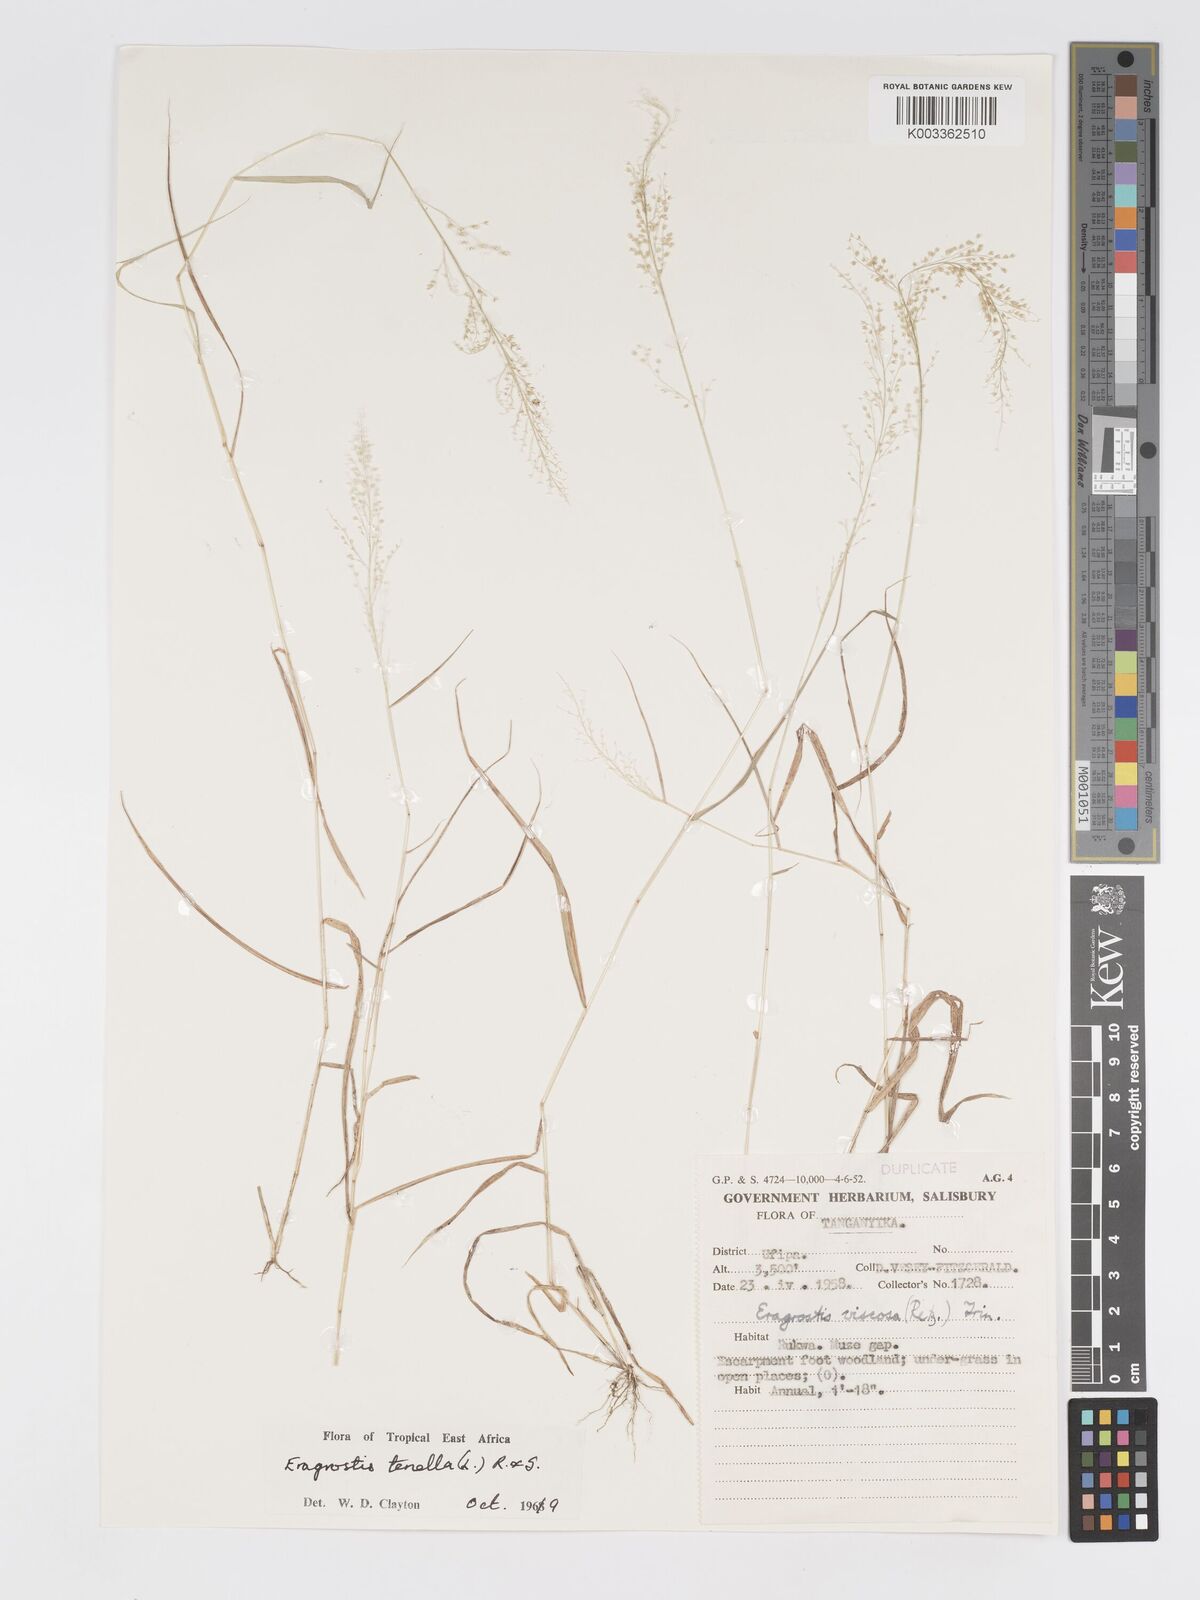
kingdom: Plantae
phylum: Tracheophyta
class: Liliopsida
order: Poales
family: Poaceae
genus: Eragrostis
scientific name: Eragrostis tenella
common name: Japanese lovegrass
